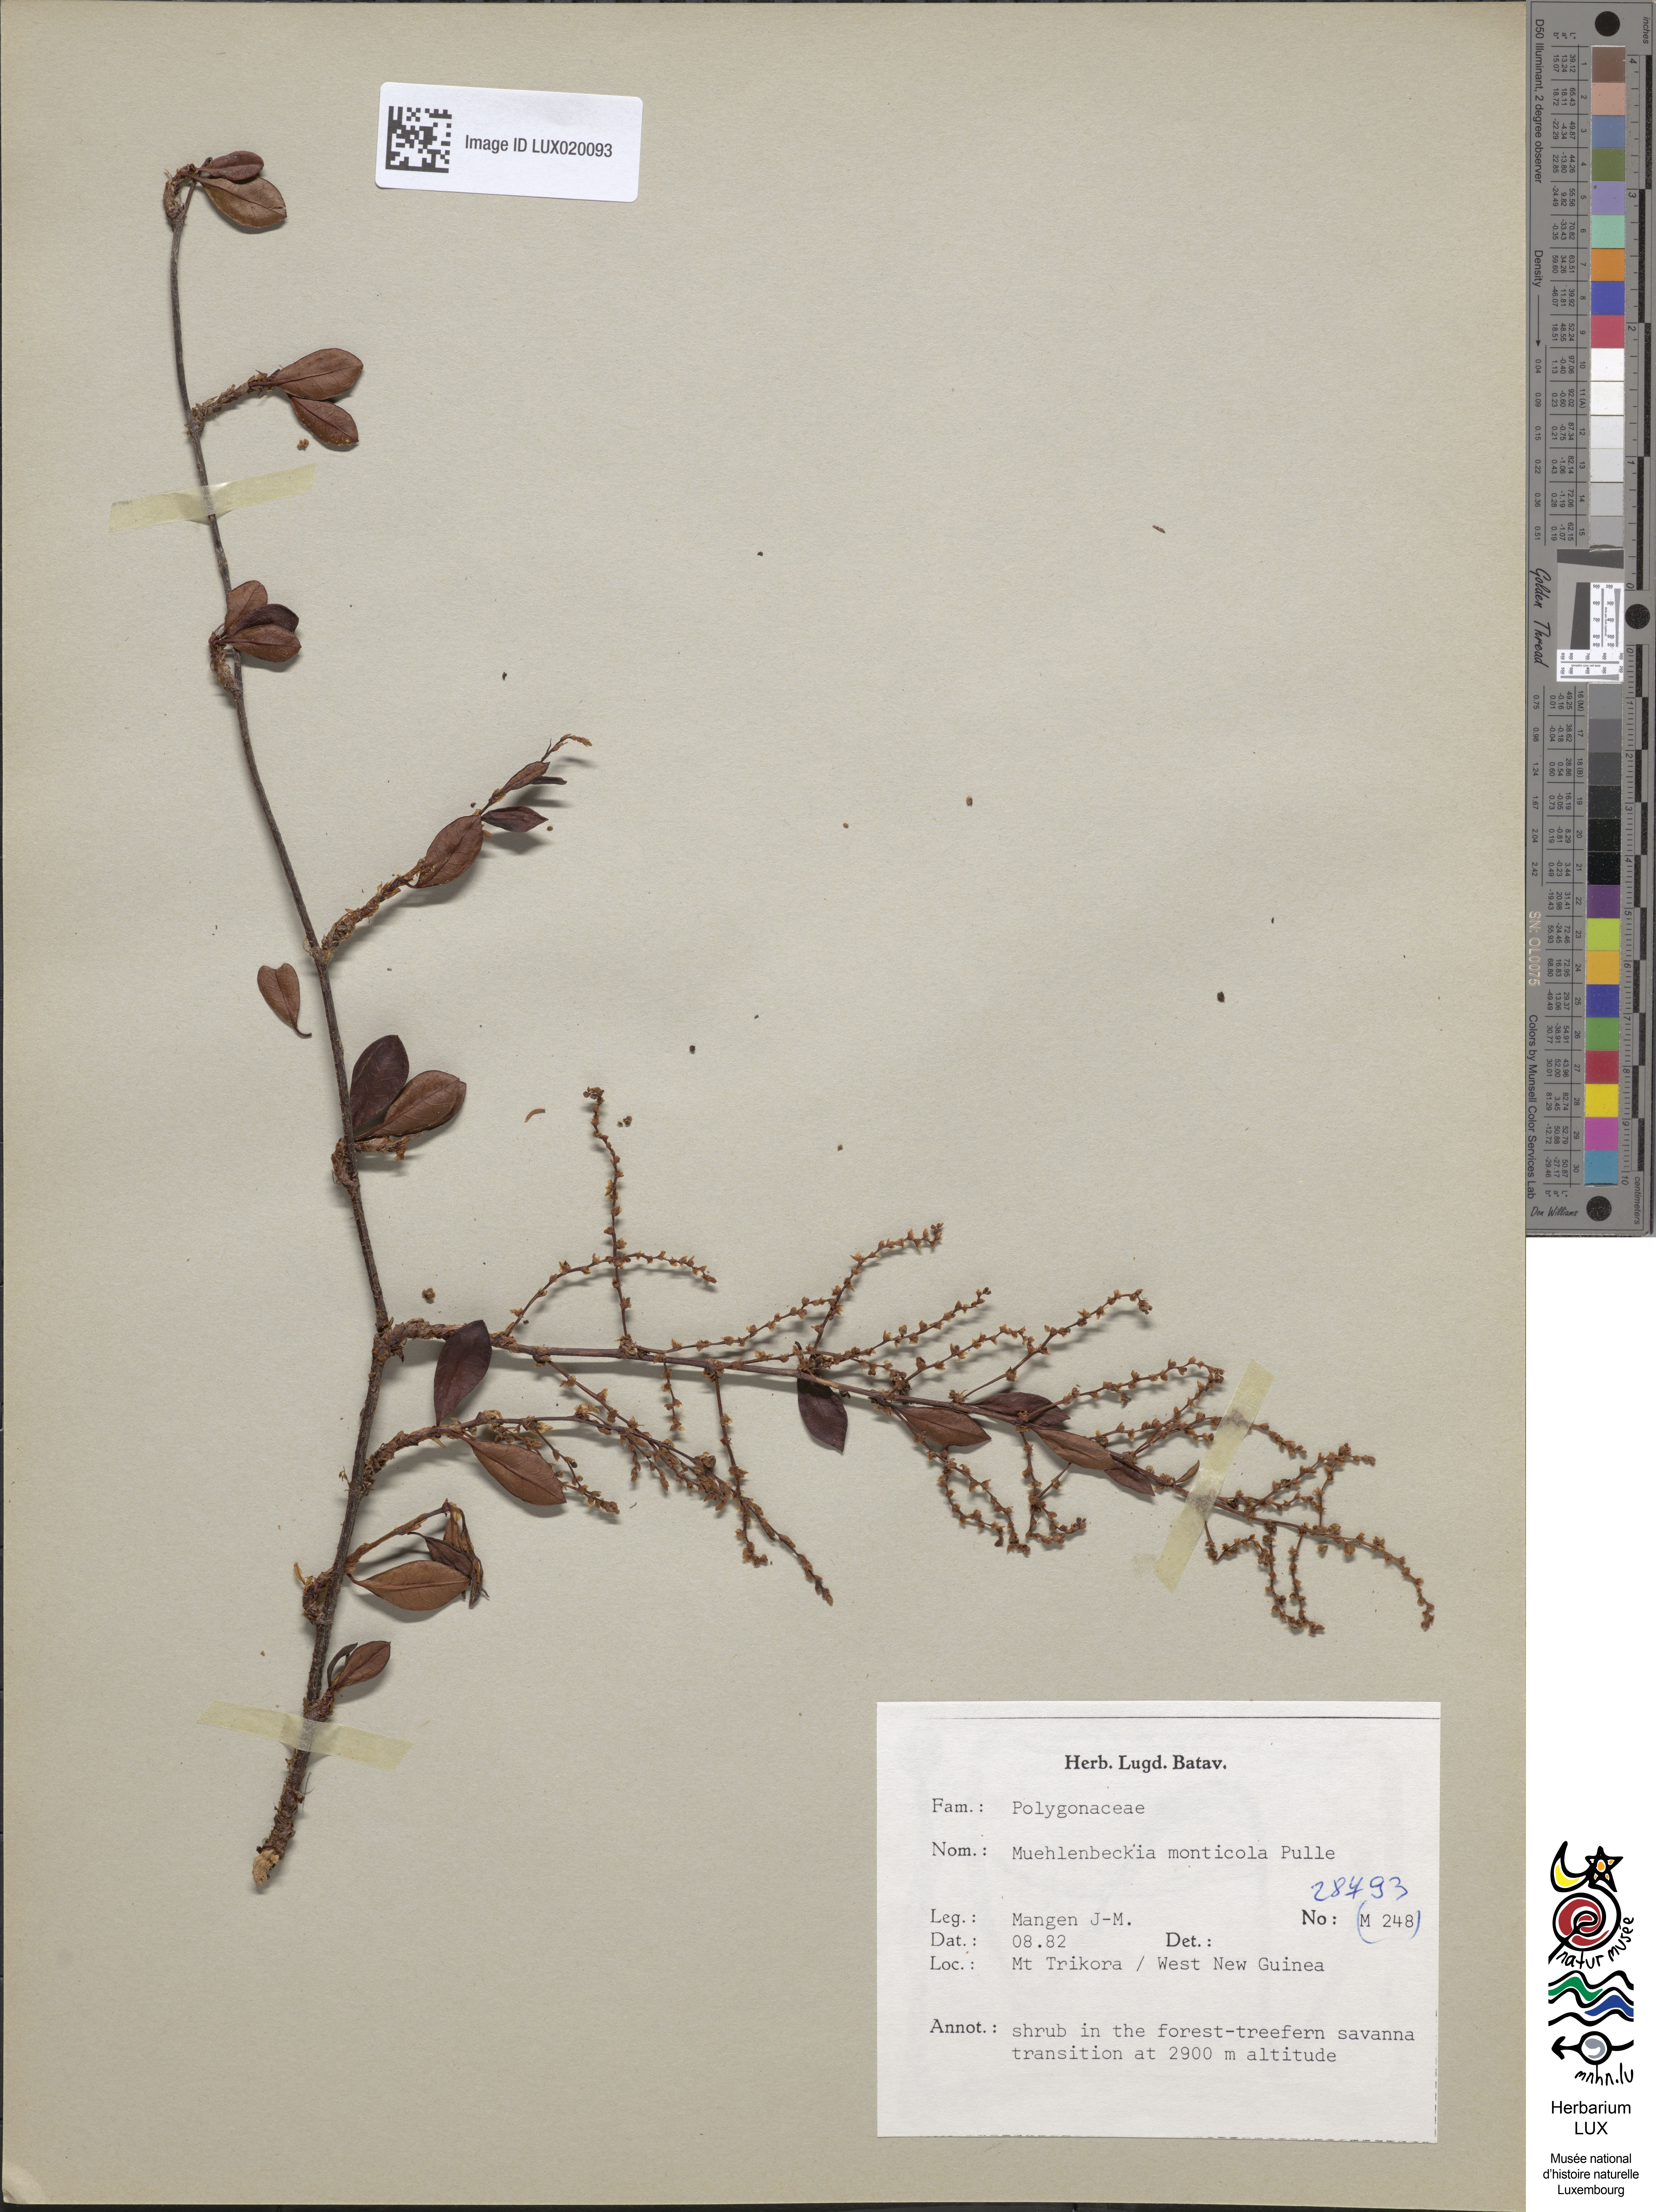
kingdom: Plantae
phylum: Tracheophyta
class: Magnoliopsida
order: Caryophyllales
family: Polygonaceae
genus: Muehlenbeckia
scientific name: Muehlenbeckia monticola
